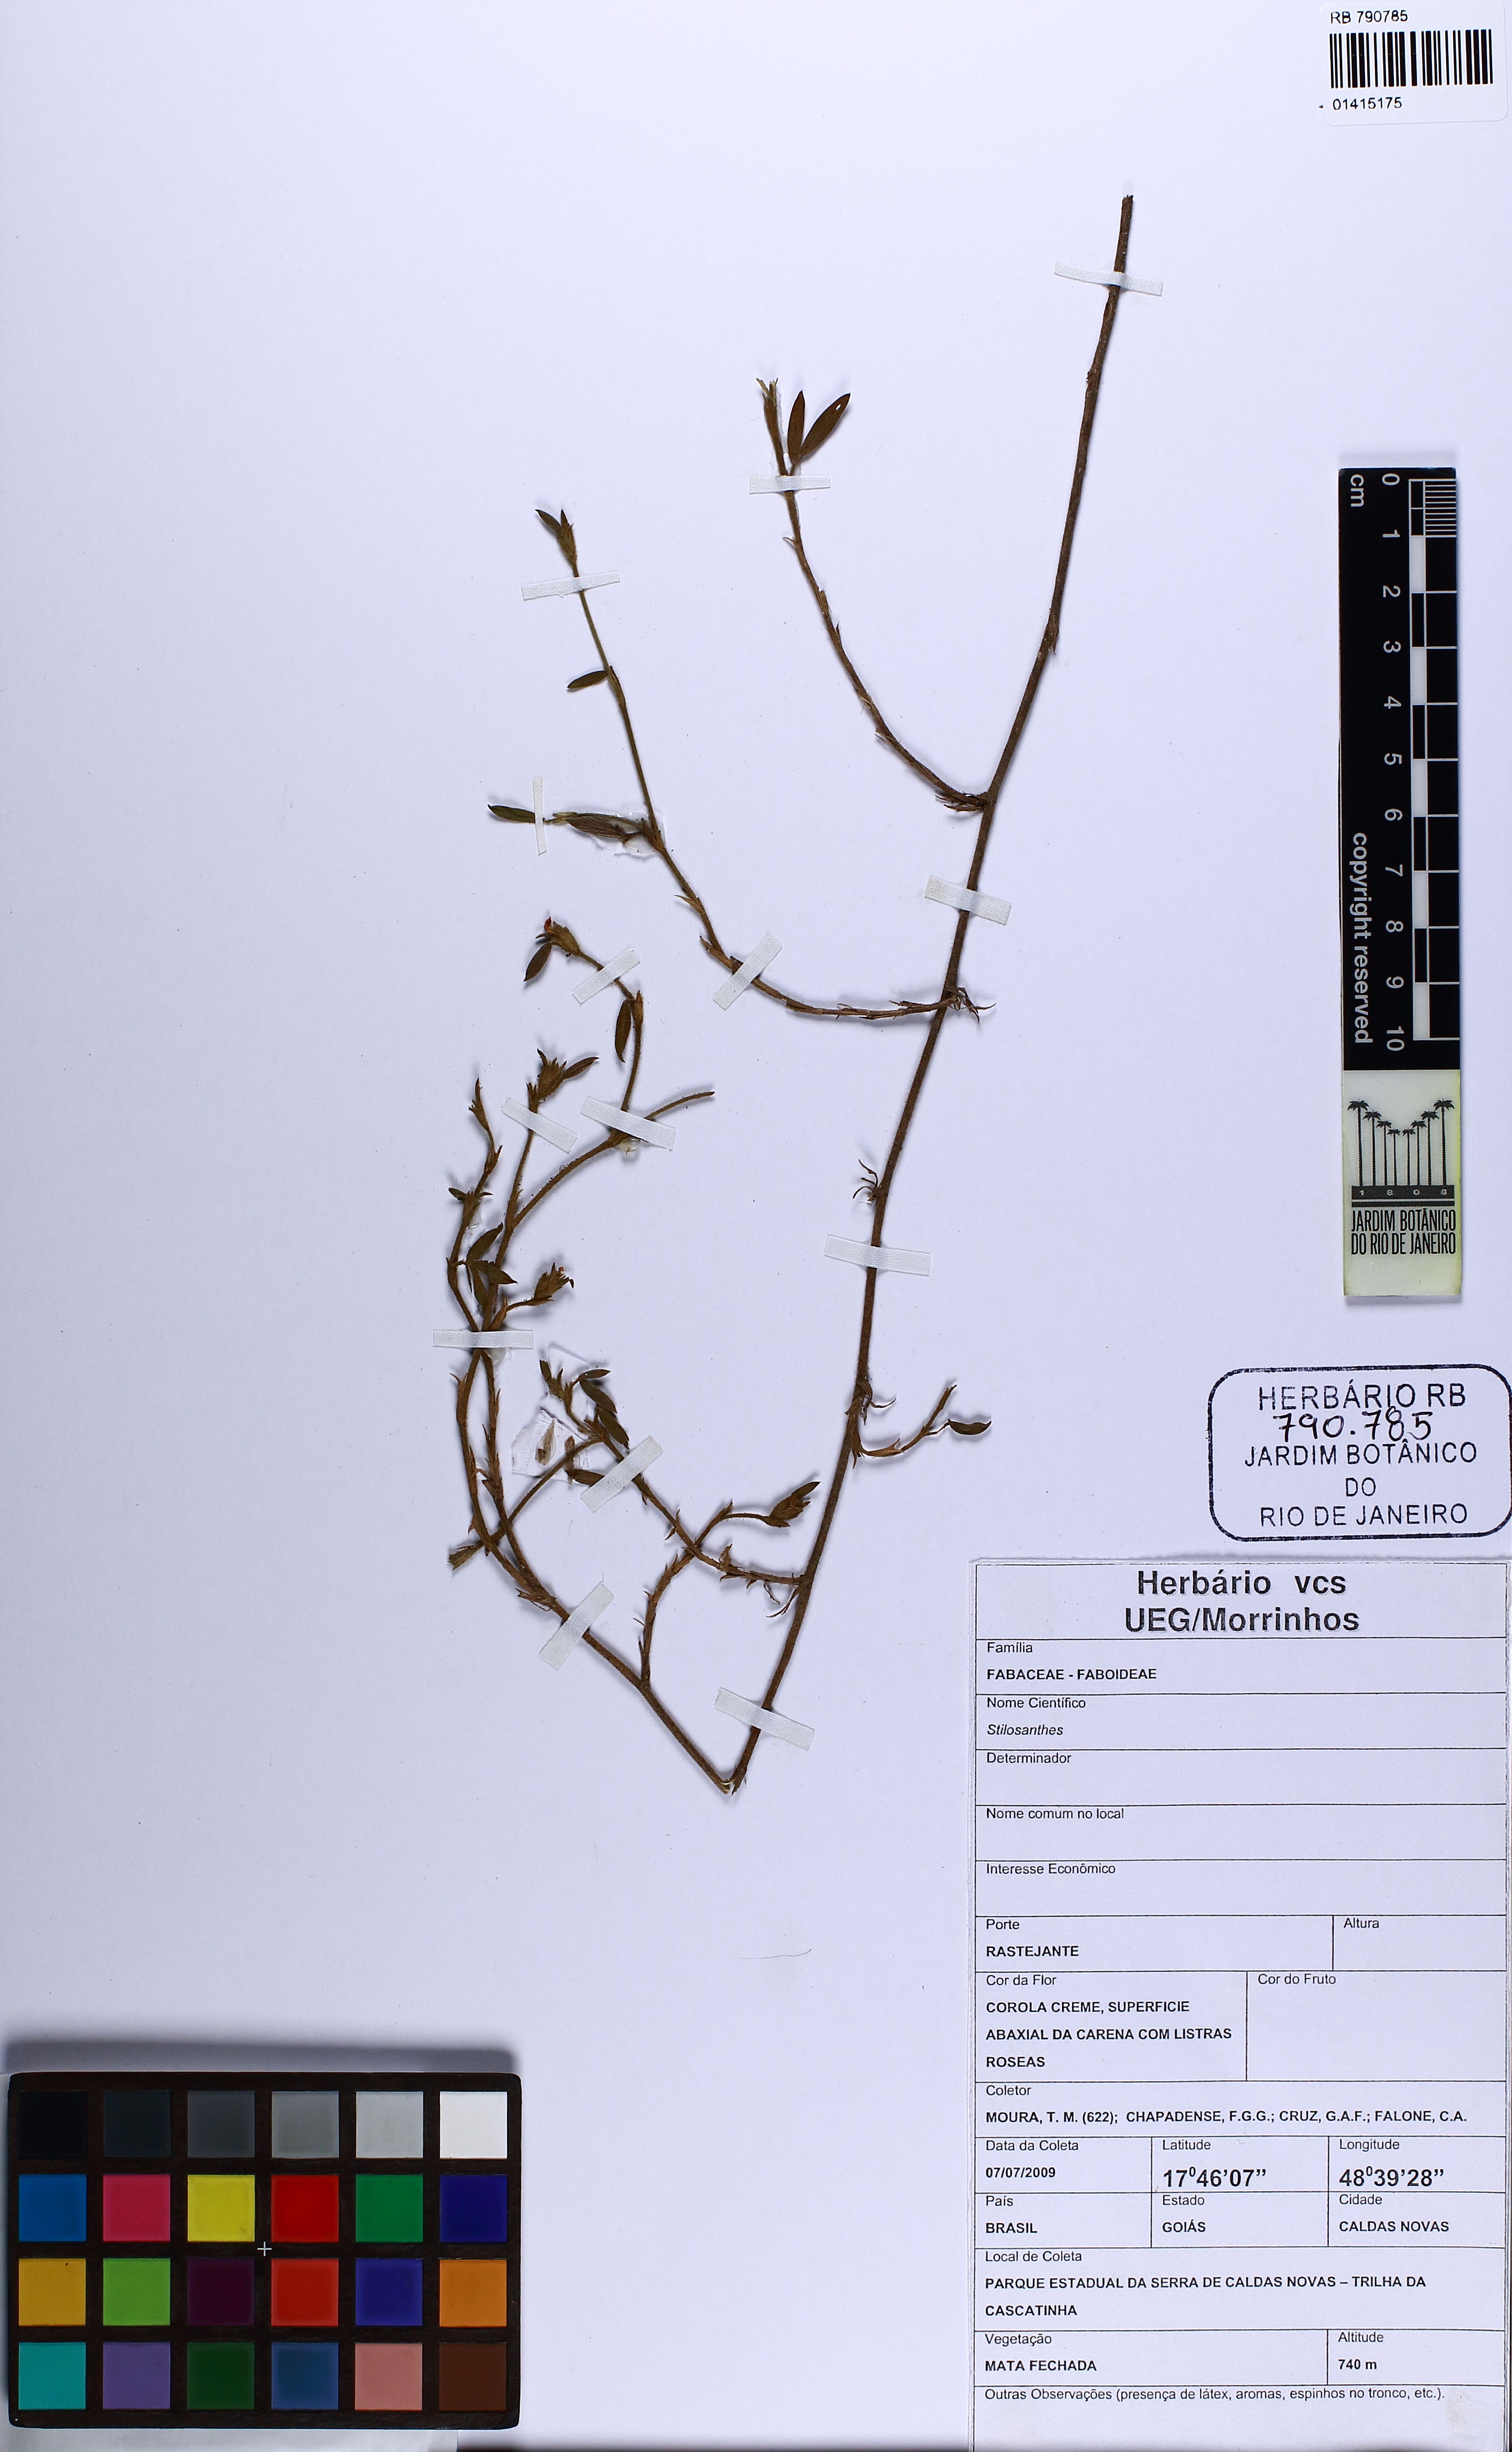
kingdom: Plantae
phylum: Tracheophyta
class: Magnoliopsida
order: Fabales
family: Fabaceae
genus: Stylosanthes
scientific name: Stylosanthes
